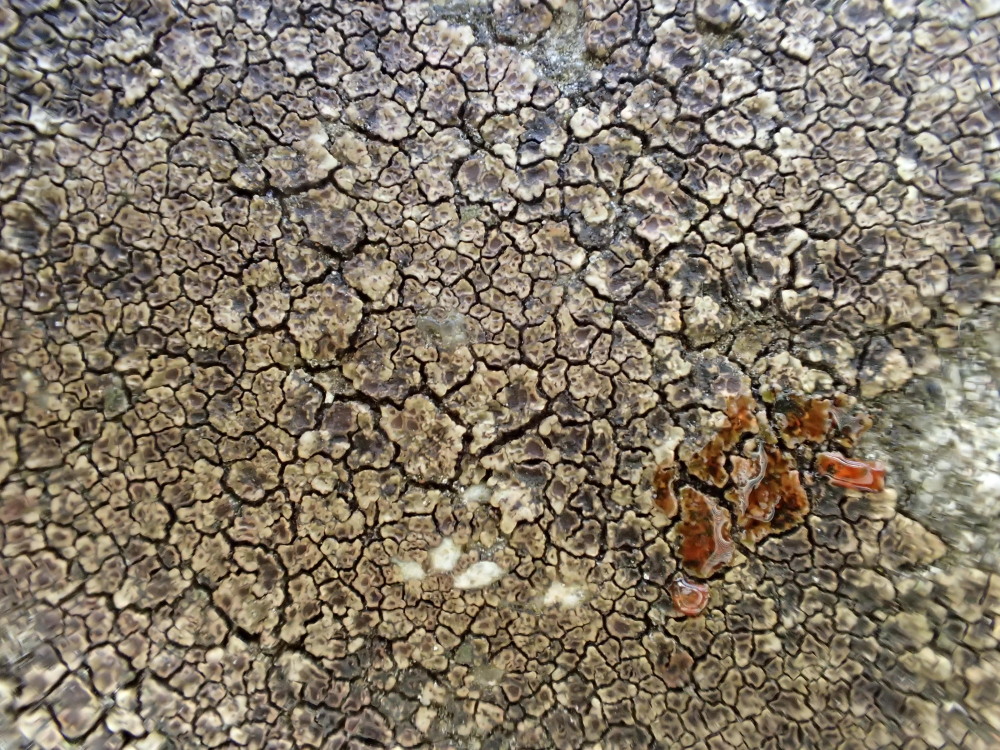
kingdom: Fungi
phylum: Ascomycota
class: Lecanoromycetes
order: Acarosporales
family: Acarosporaceae
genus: Acarospora
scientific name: Acarospora fuscata
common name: brun småsporelav
